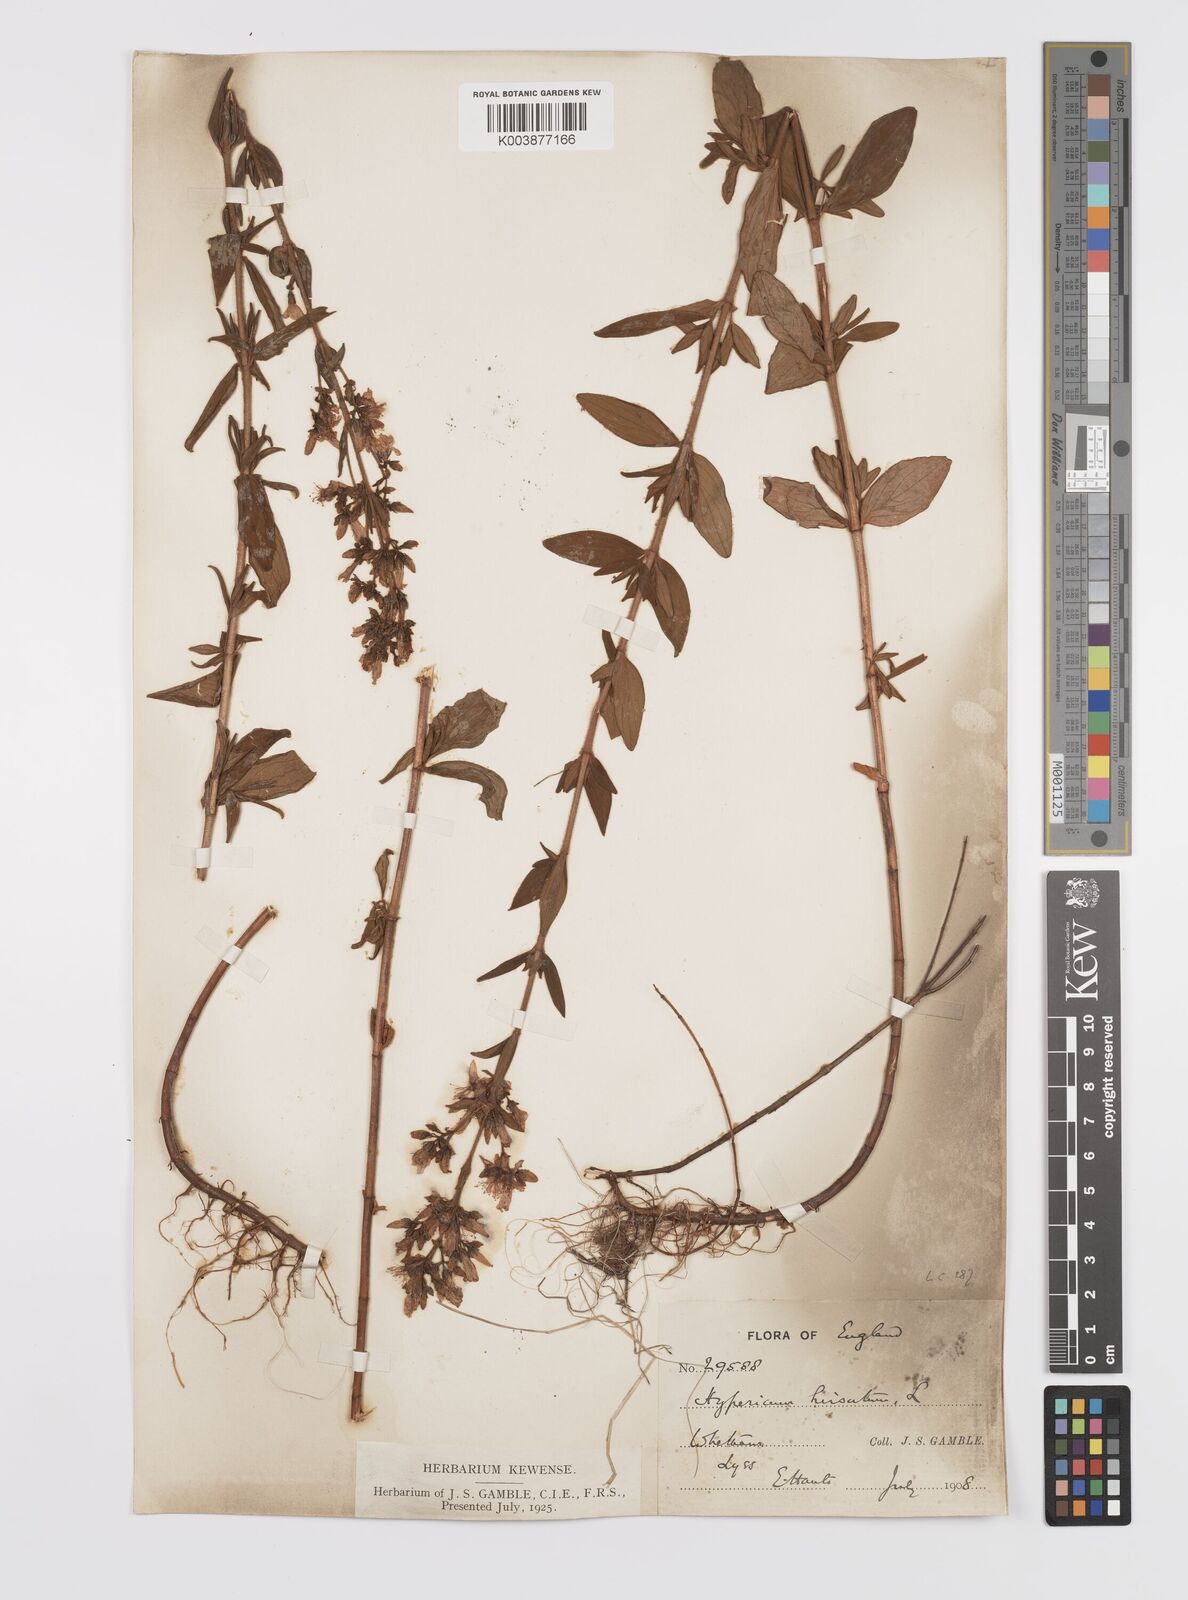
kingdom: Plantae
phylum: Tracheophyta
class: Magnoliopsida
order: Malpighiales
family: Hypericaceae
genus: Hypericum
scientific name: Hypericum hirsutum
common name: Hairy st. john's-wort
